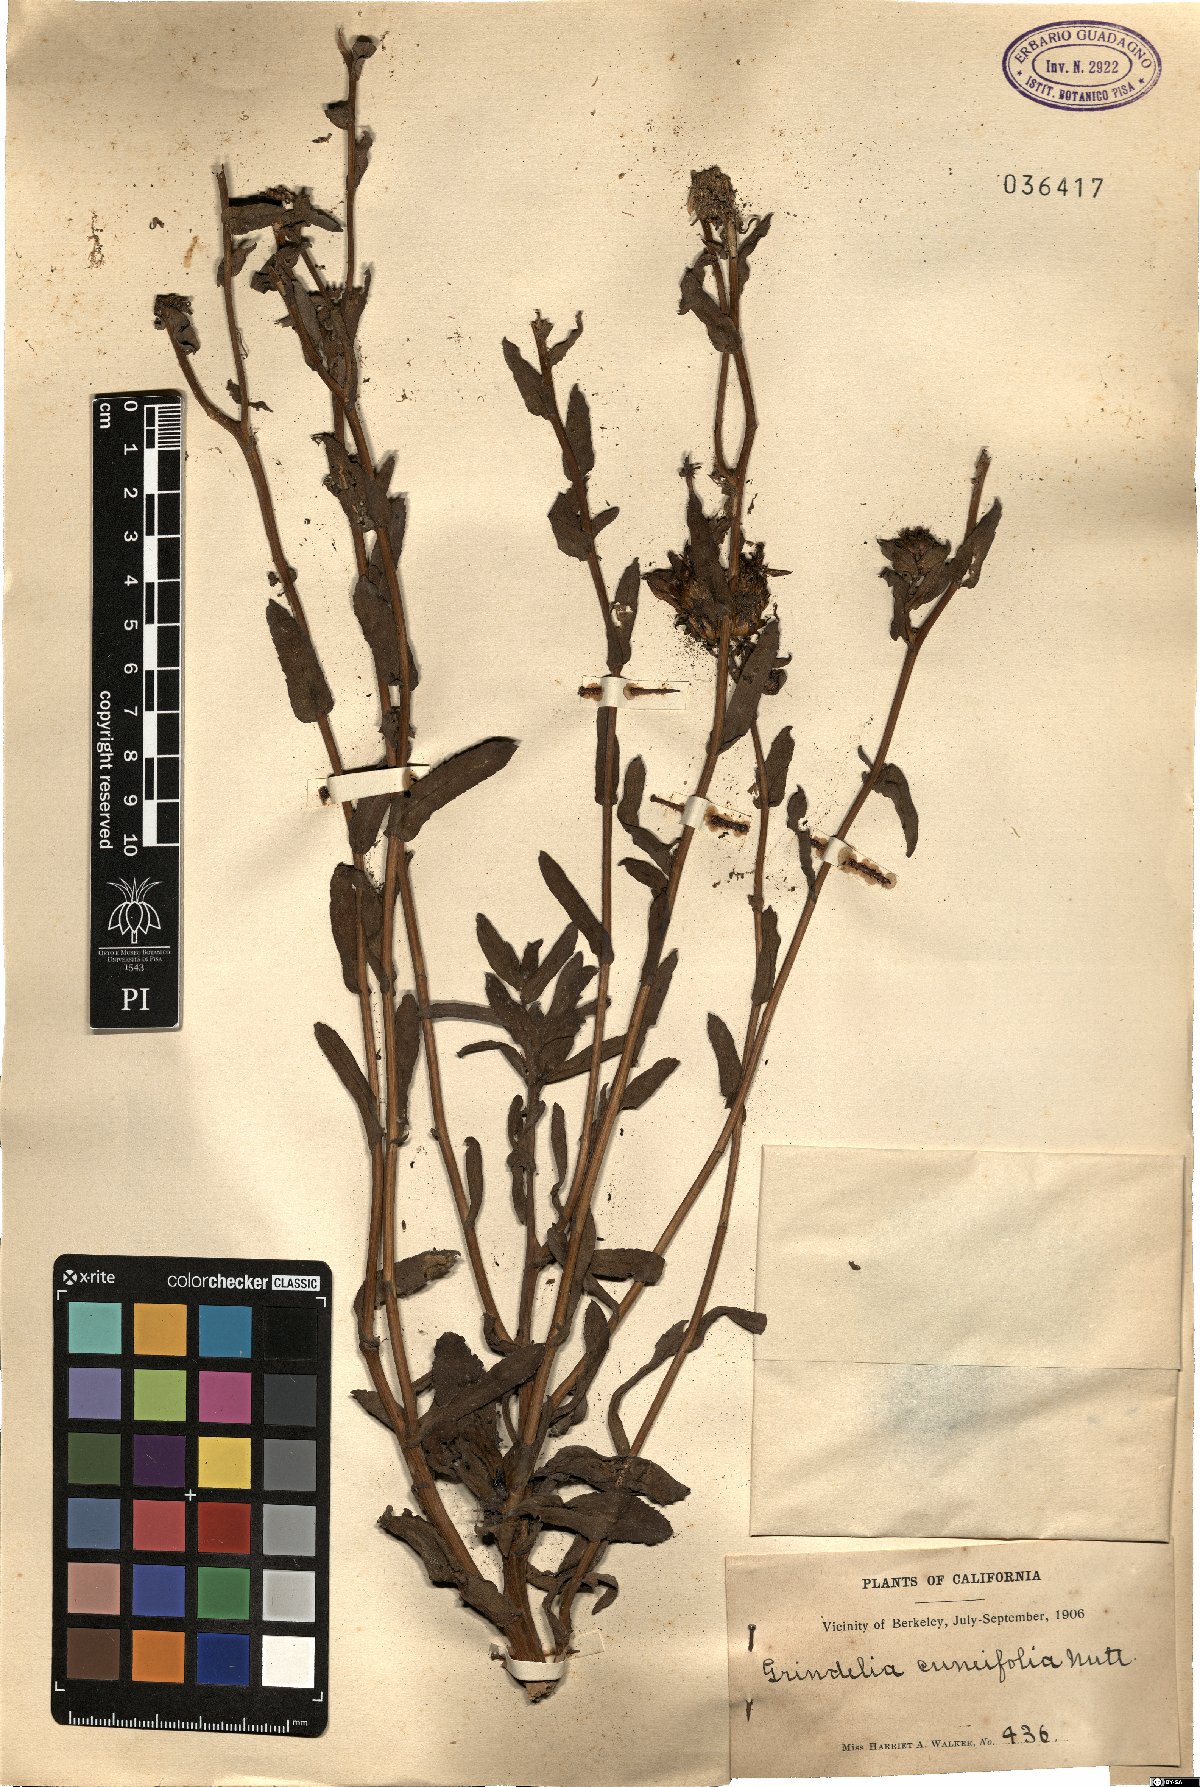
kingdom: Plantae
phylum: Tracheophyta
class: Magnoliopsida
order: Asterales
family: Asteraceae
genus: Grindelia
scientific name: Grindelia hirsutula
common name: Hairy gumweed
